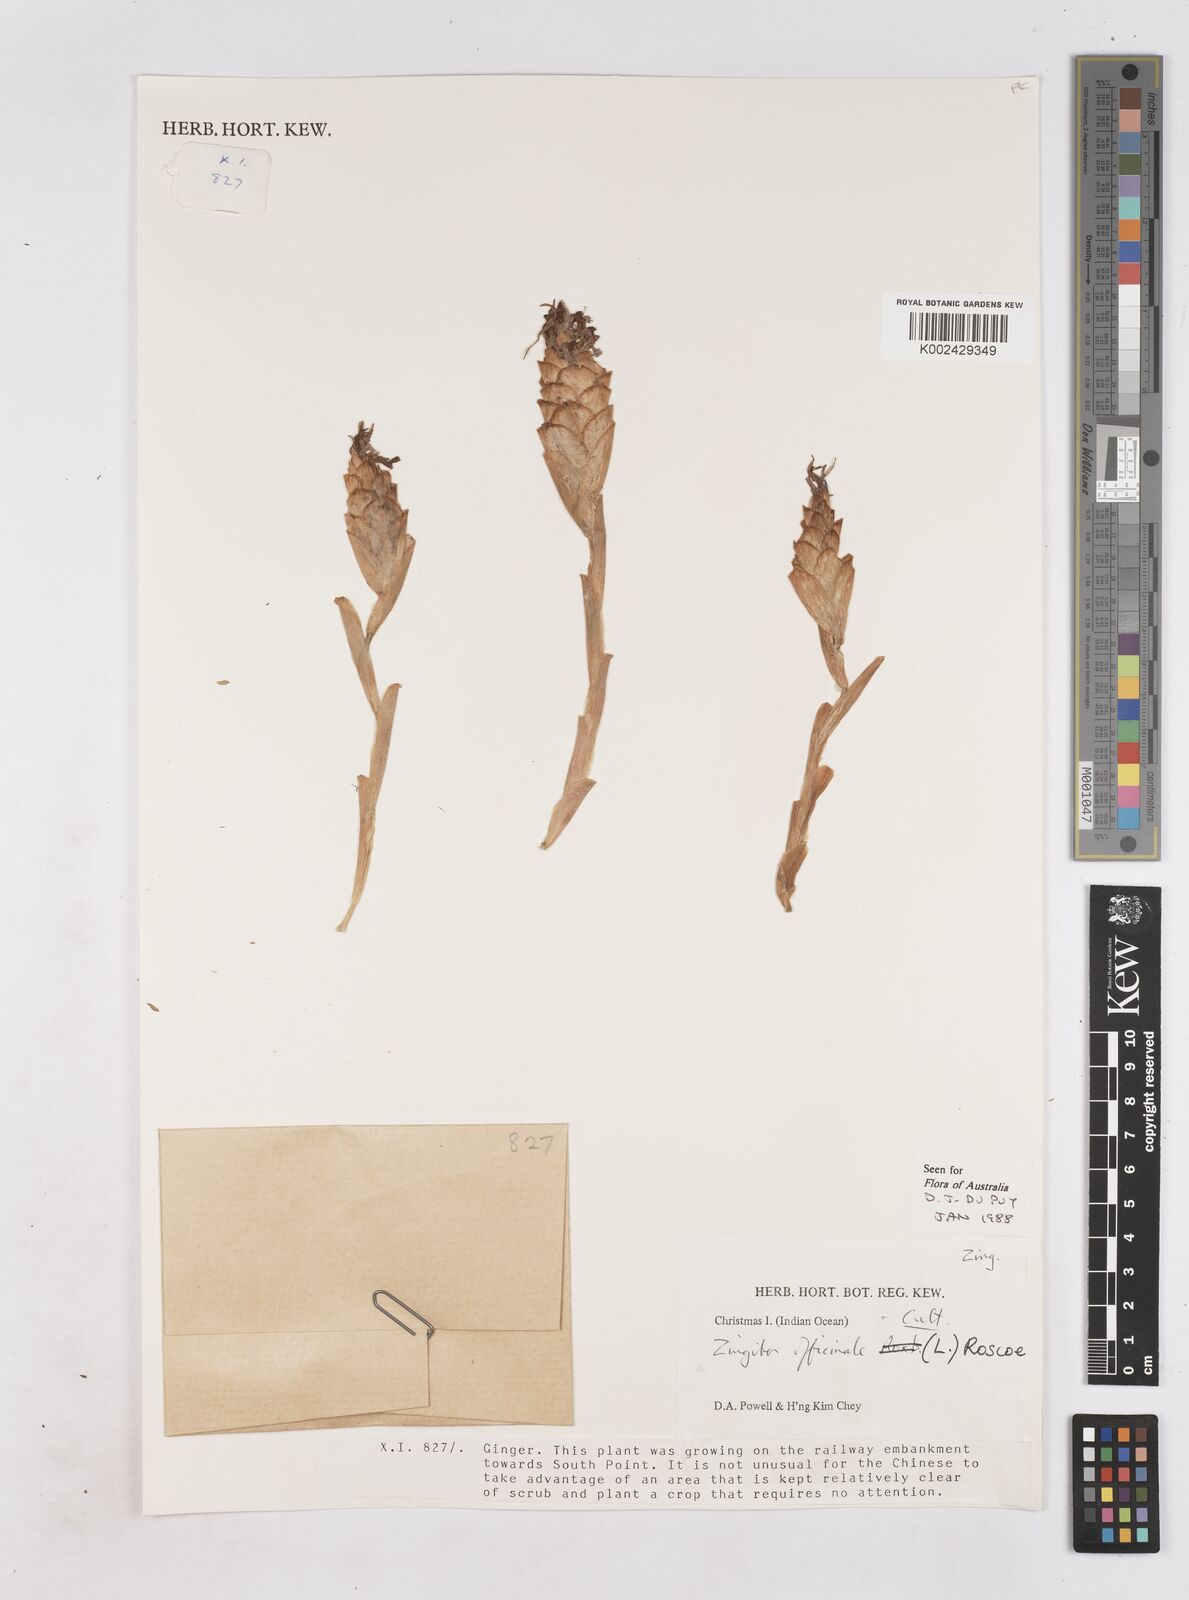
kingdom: Plantae
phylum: Tracheophyta
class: Liliopsida
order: Zingiberales
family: Zingiberaceae
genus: Zingiber
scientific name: Zingiber officinale
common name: Ginger
